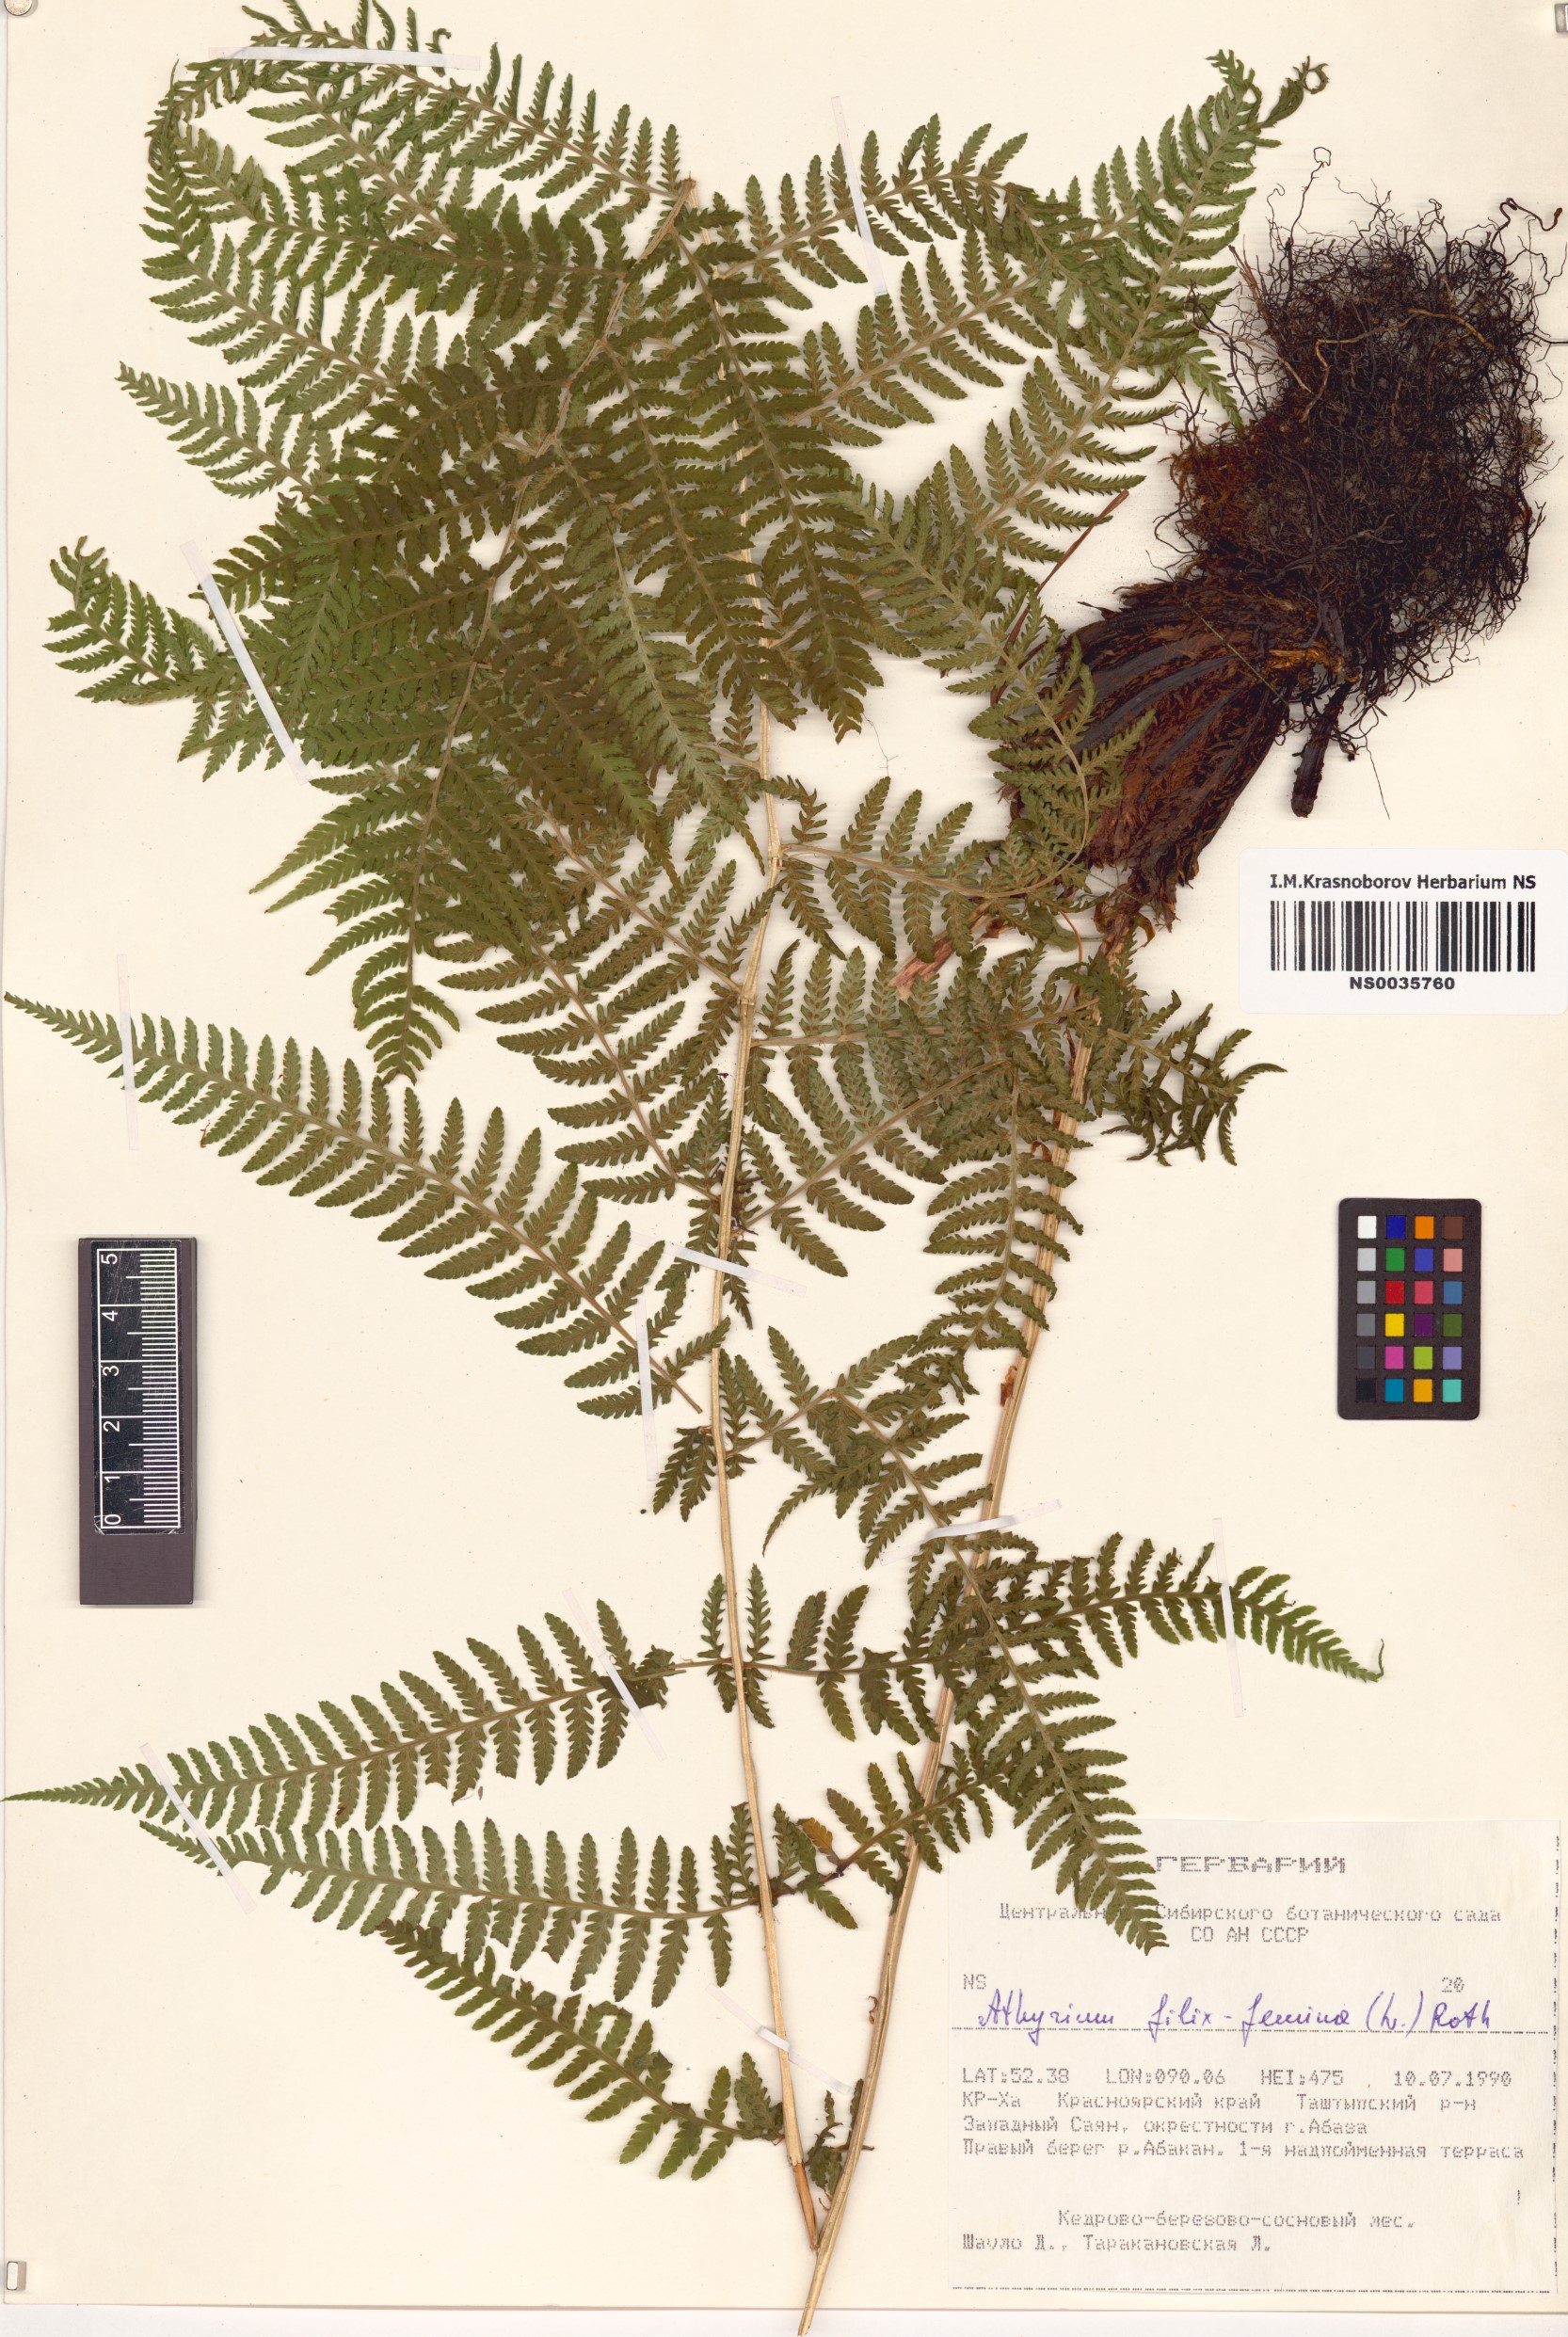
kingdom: Plantae
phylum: Tracheophyta
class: Polypodiopsida
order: Polypodiales
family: Athyriaceae
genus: Athyrium
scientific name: Athyrium filix-femina
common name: Lady fern
